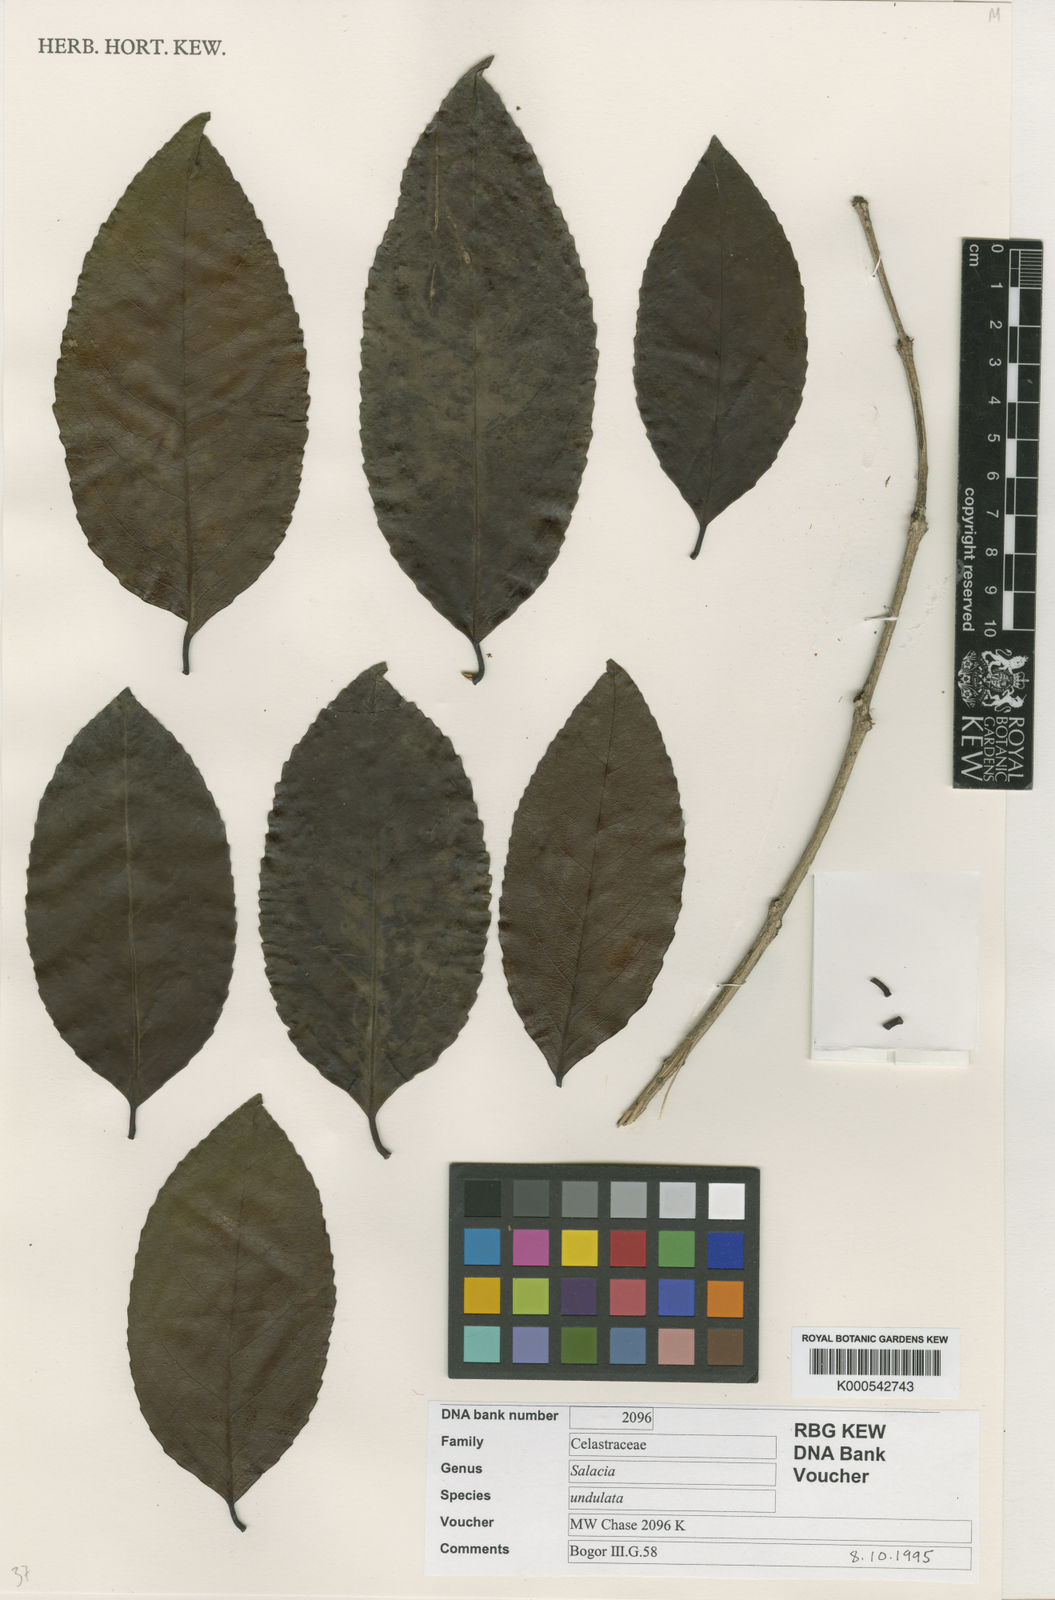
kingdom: Plantae
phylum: Tracheophyta
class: Magnoliopsida
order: Celastrales
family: Celastraceae
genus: Salacia
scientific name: Salacia arborea
